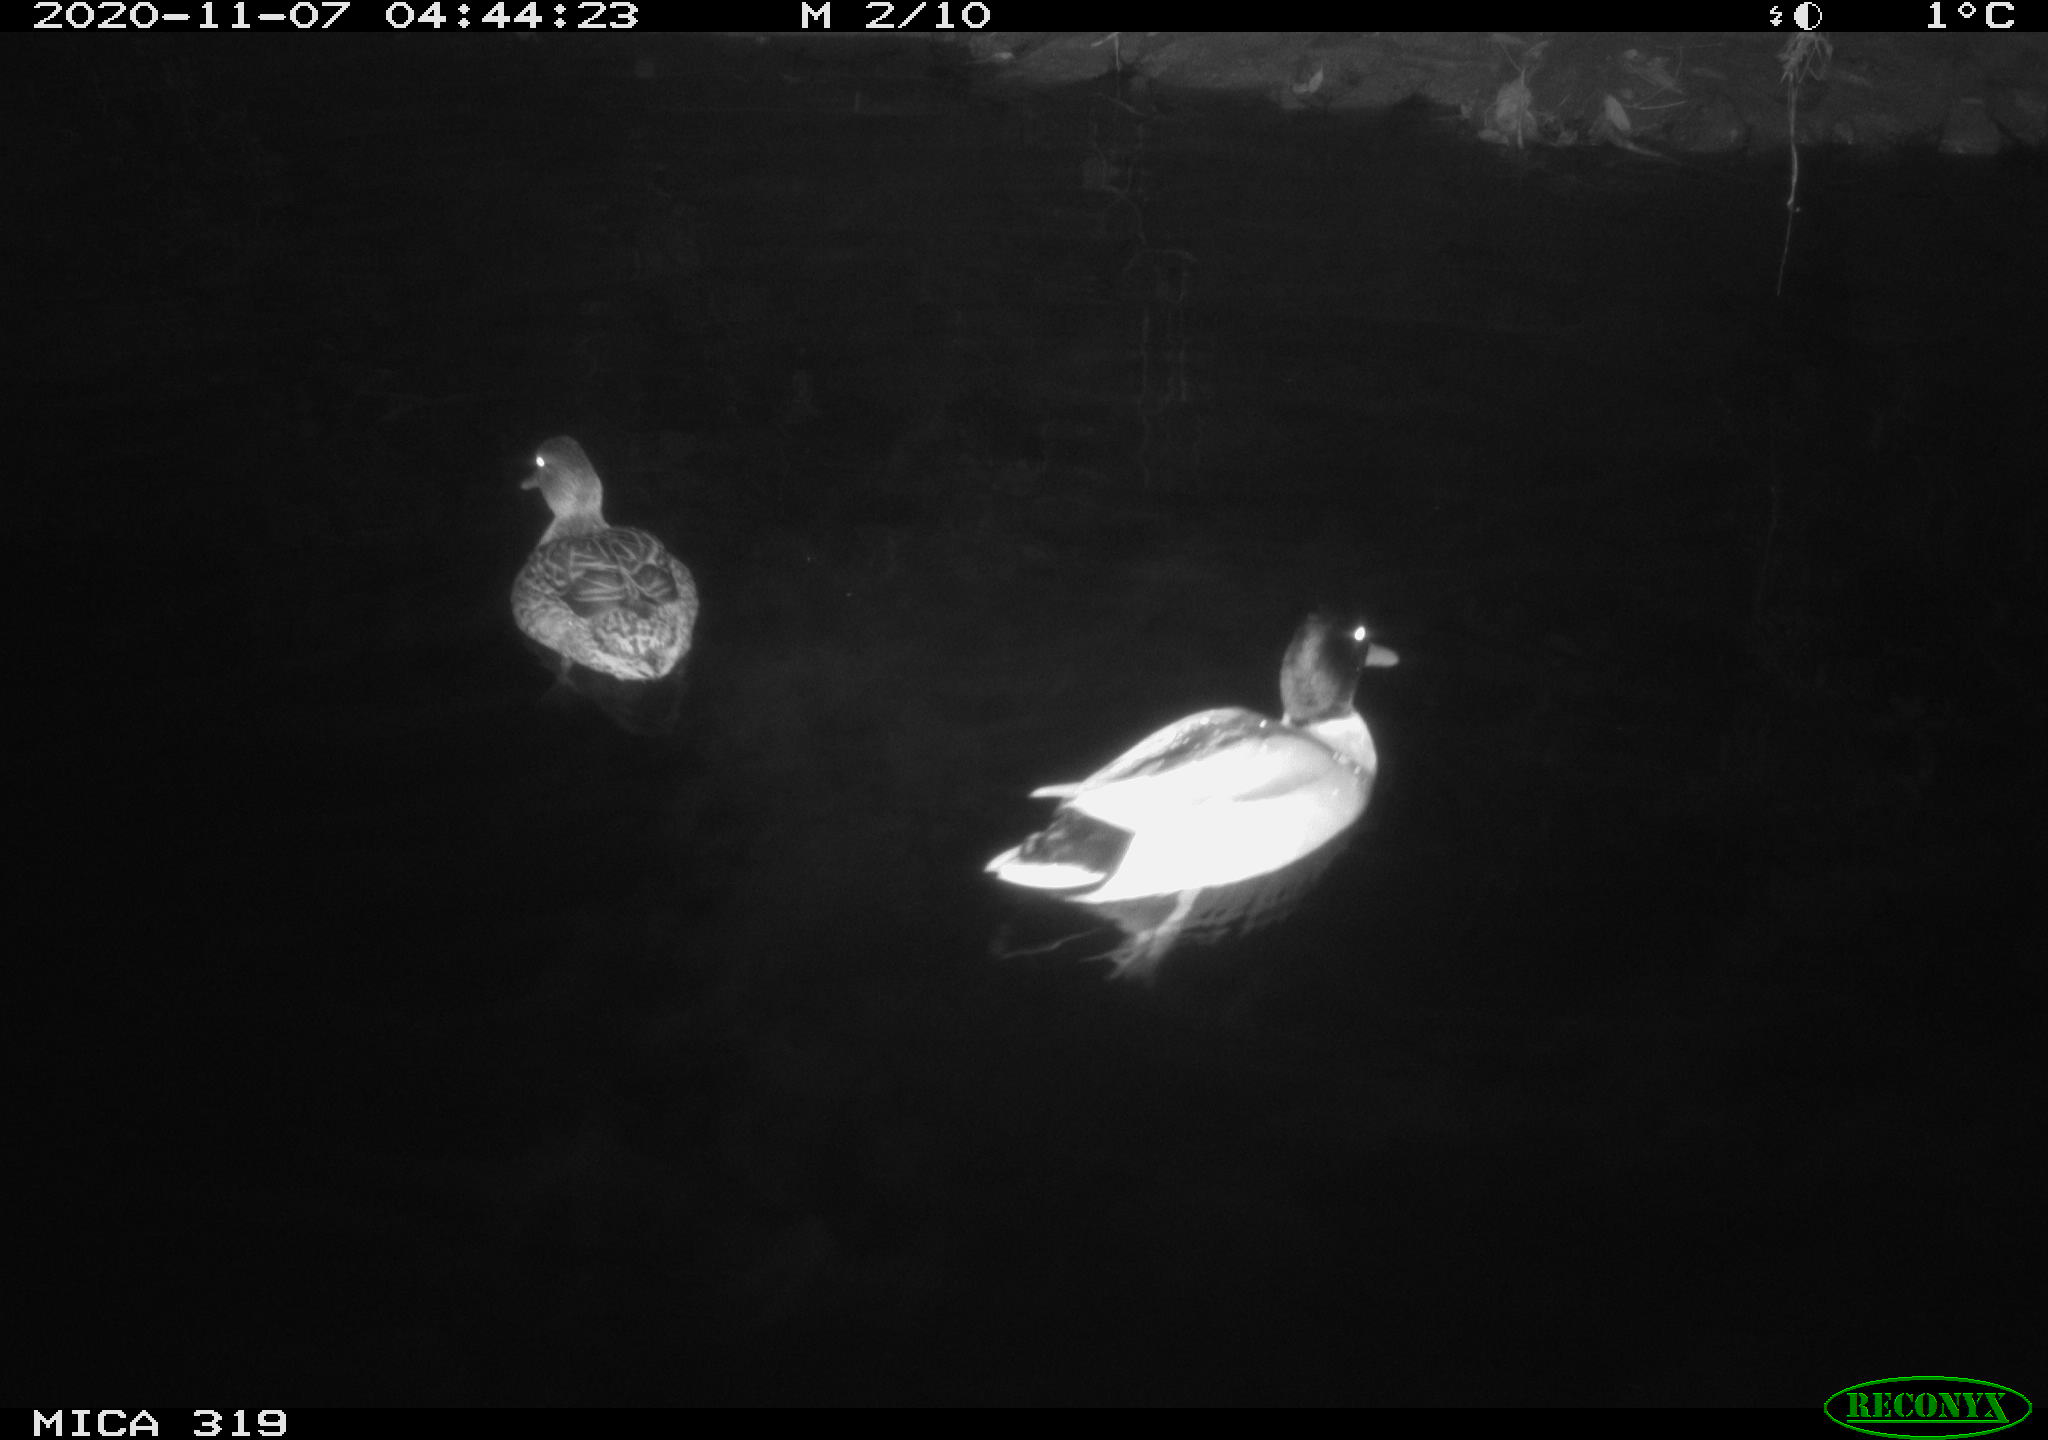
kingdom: Animalia
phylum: Chordata
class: Aves
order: Anseriformes
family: Anatidae
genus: Anas
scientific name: Anas platyrhynchos
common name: Mallard
